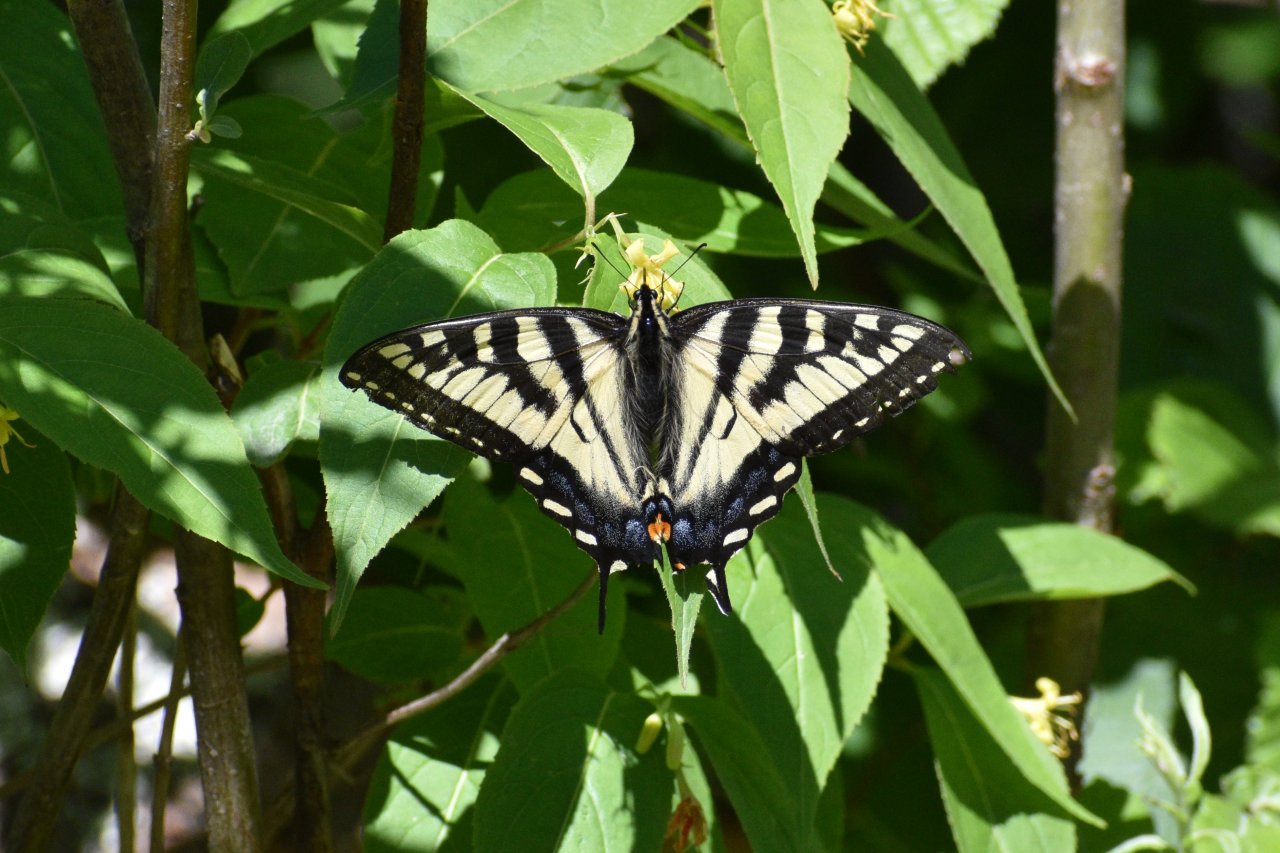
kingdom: Animalia
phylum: Arthropoda
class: Insecta
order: Lepidoptera
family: Papilionidae
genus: Pterourus
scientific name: Pterourus canadensis
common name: Canadian Tiger Swallowtail
